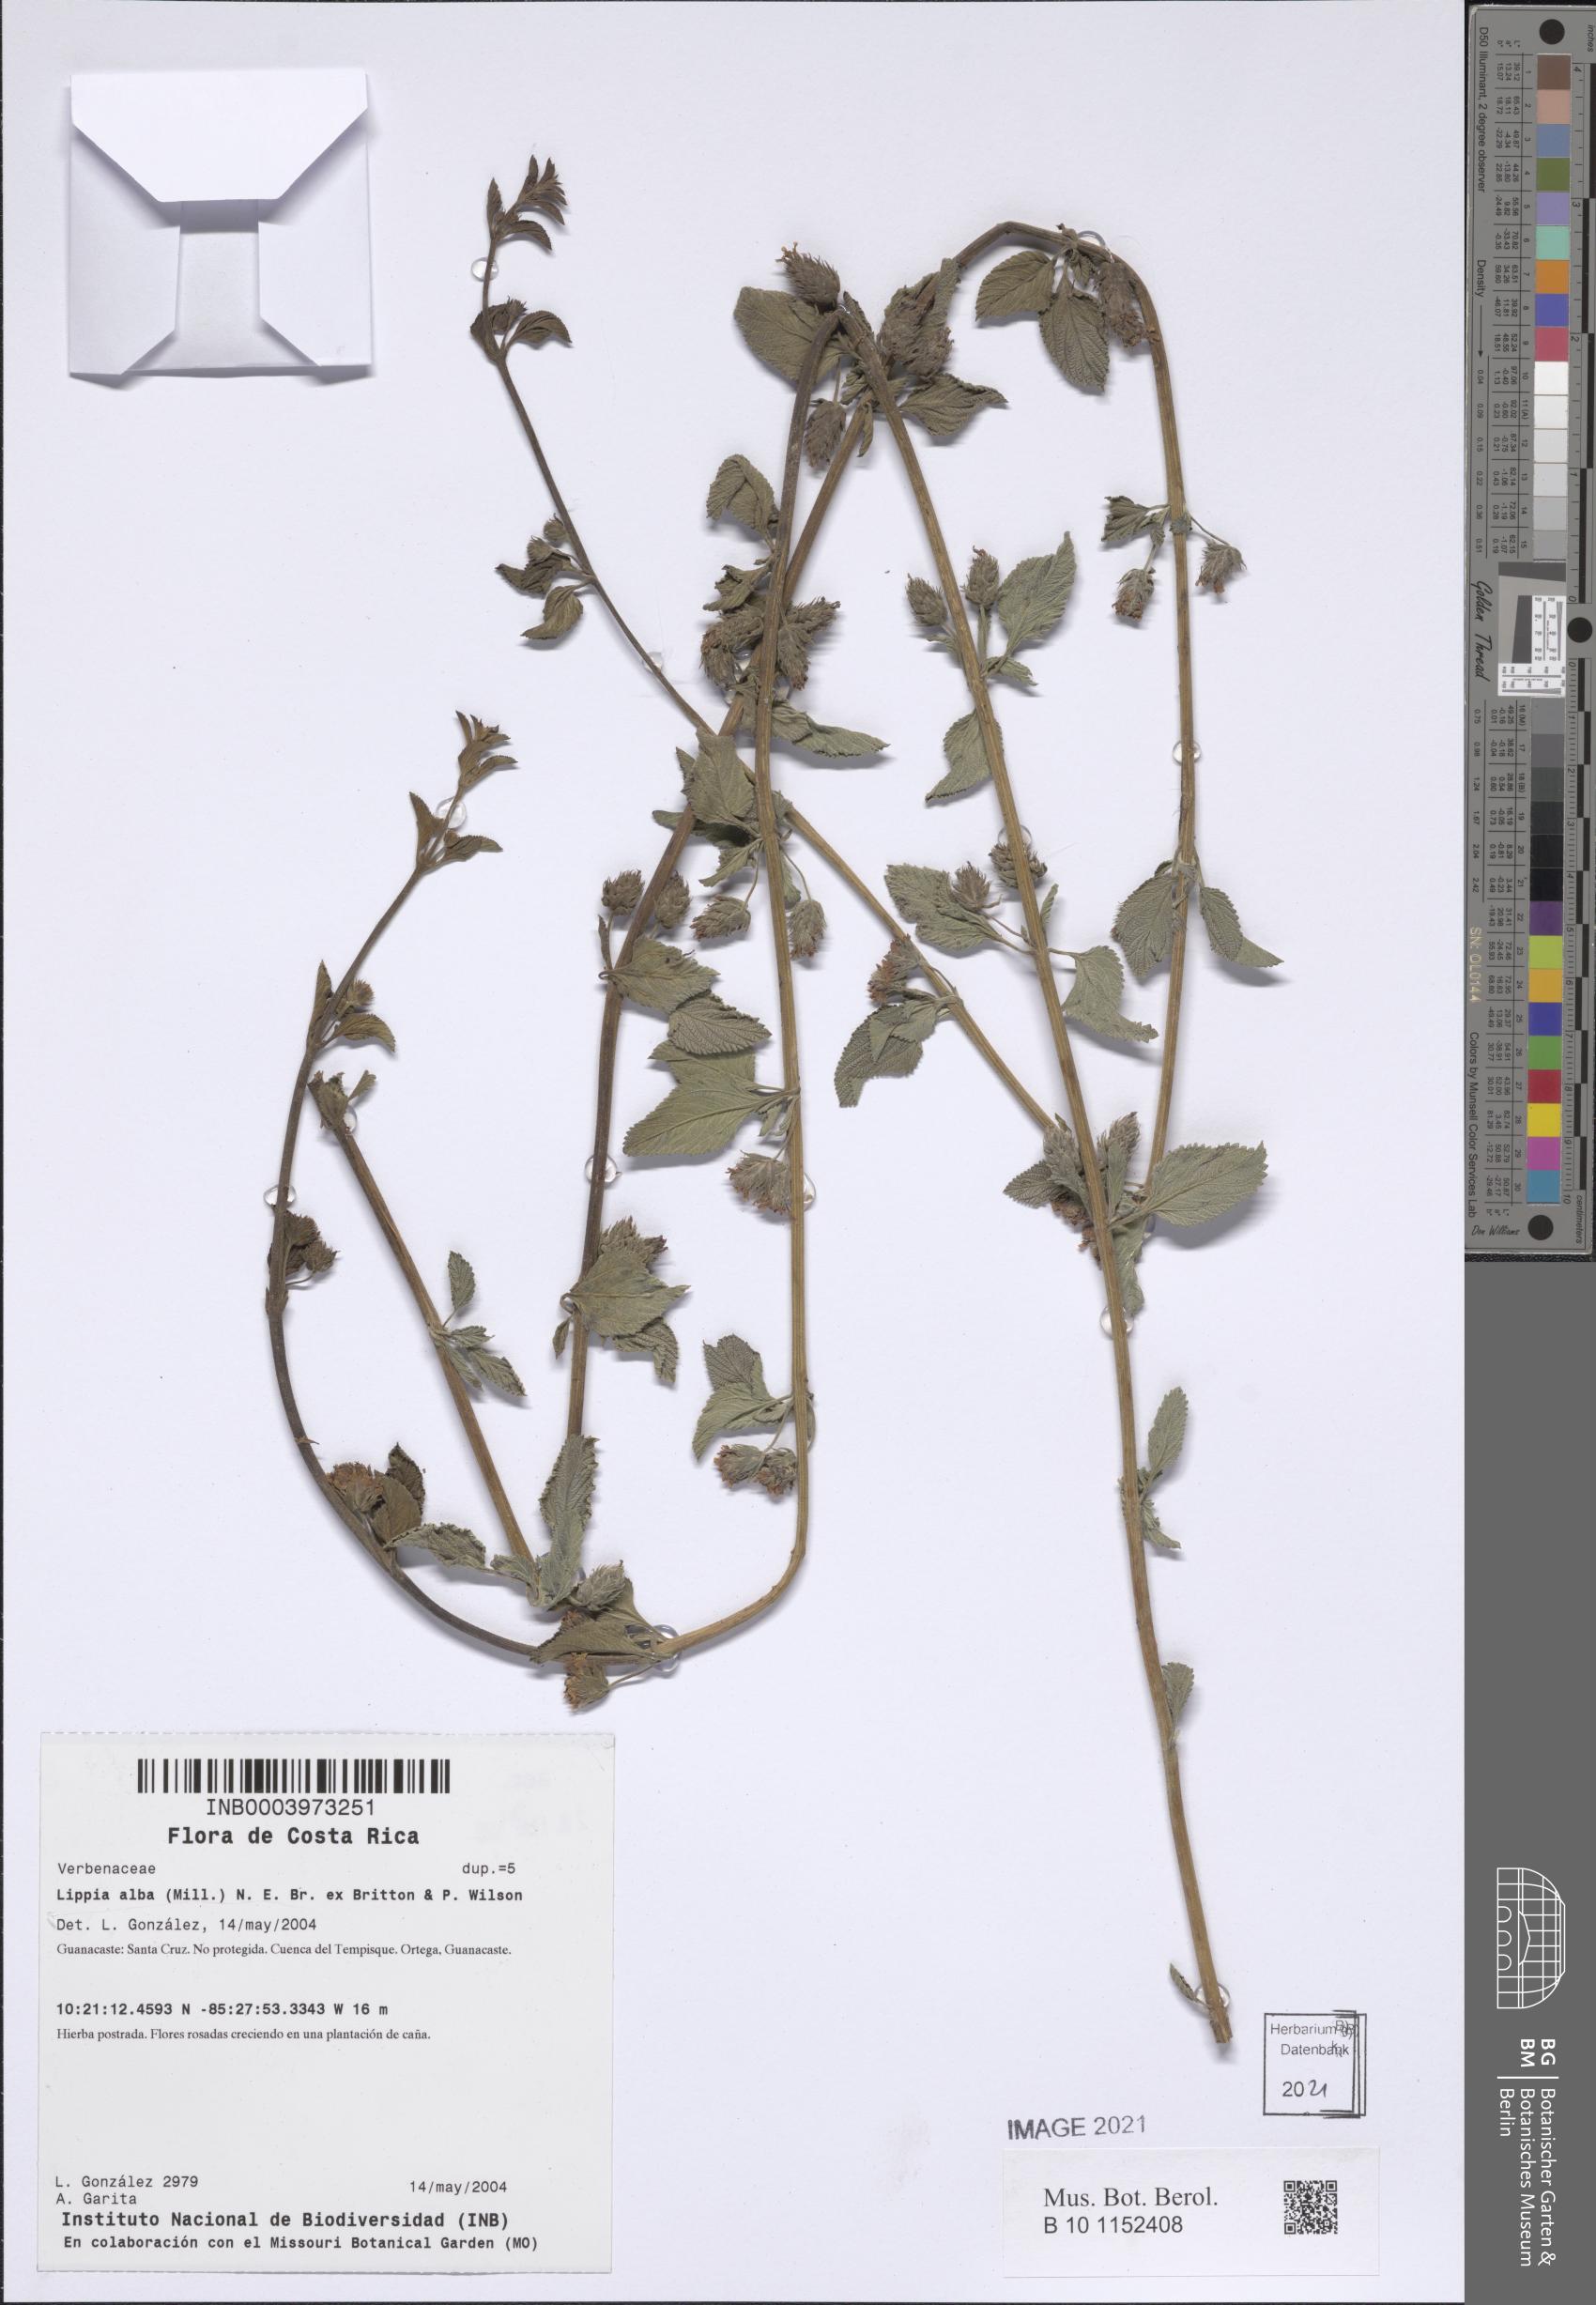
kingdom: Plantae
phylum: Tracheophyta
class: Magnoliopsida
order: Lamiales
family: Verbenaceae
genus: Lippia
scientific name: Lippia alba
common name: Bushy matgrass
